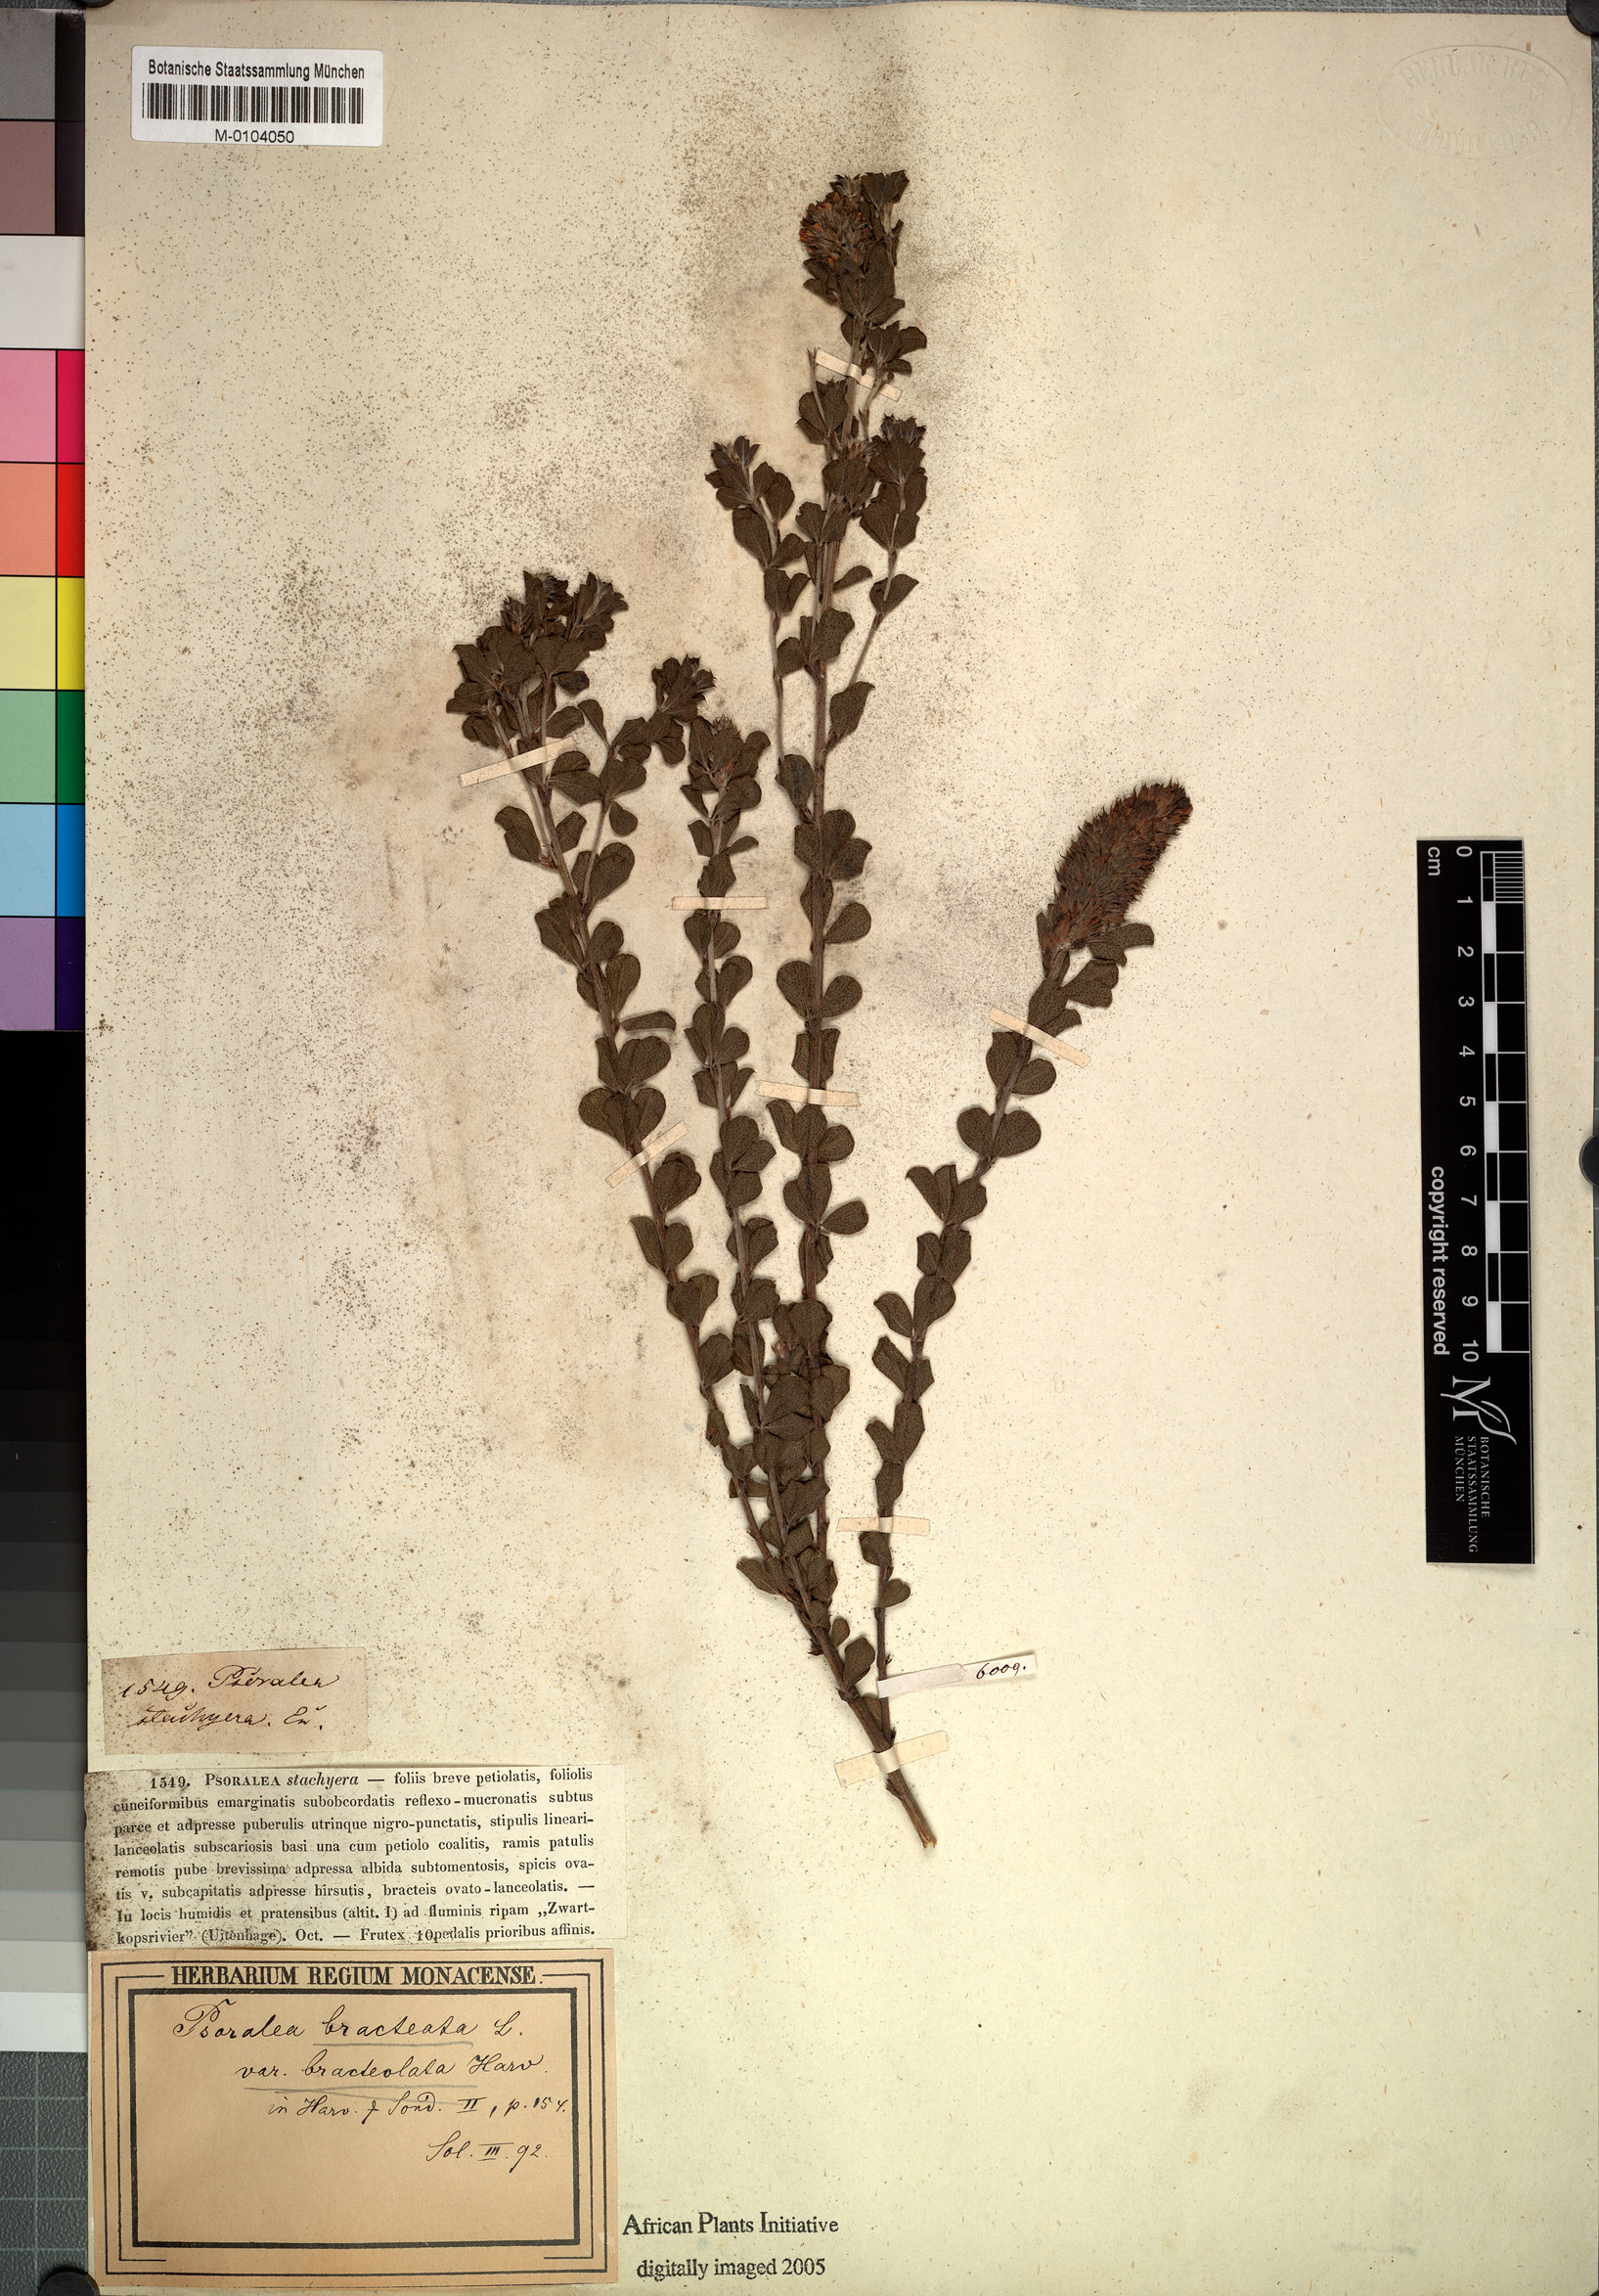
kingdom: Plantae
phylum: Tracheophyta
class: Magnoliopsida
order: Fabales
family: Fabaceae
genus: Psoralea
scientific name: Psoralea stachyera
